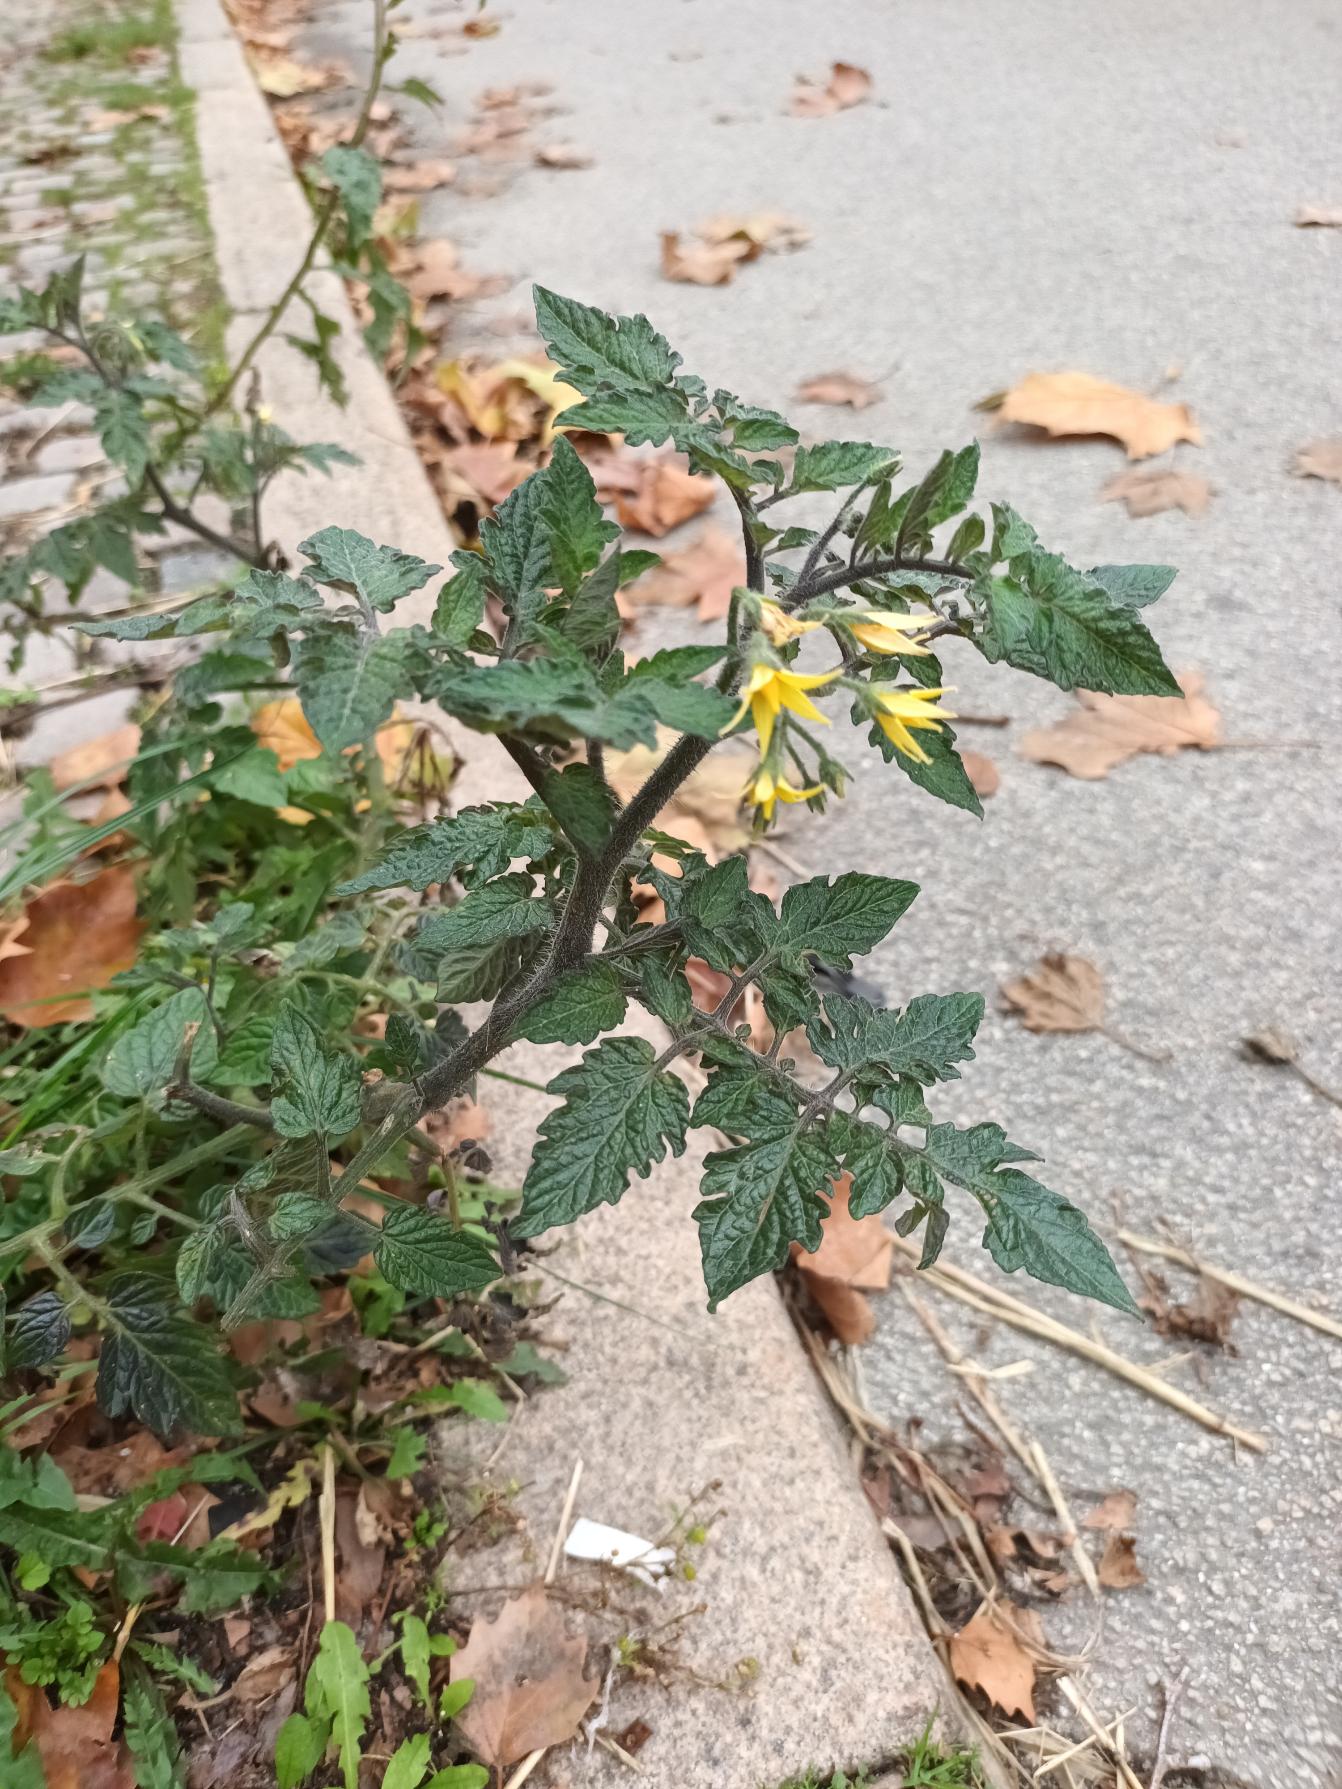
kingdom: Plantae
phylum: Tracheophyta
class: Magnoliopsida
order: Solanales
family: Solanaceae
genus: Solanum
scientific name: Solanum lycopersicum
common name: Tomat
